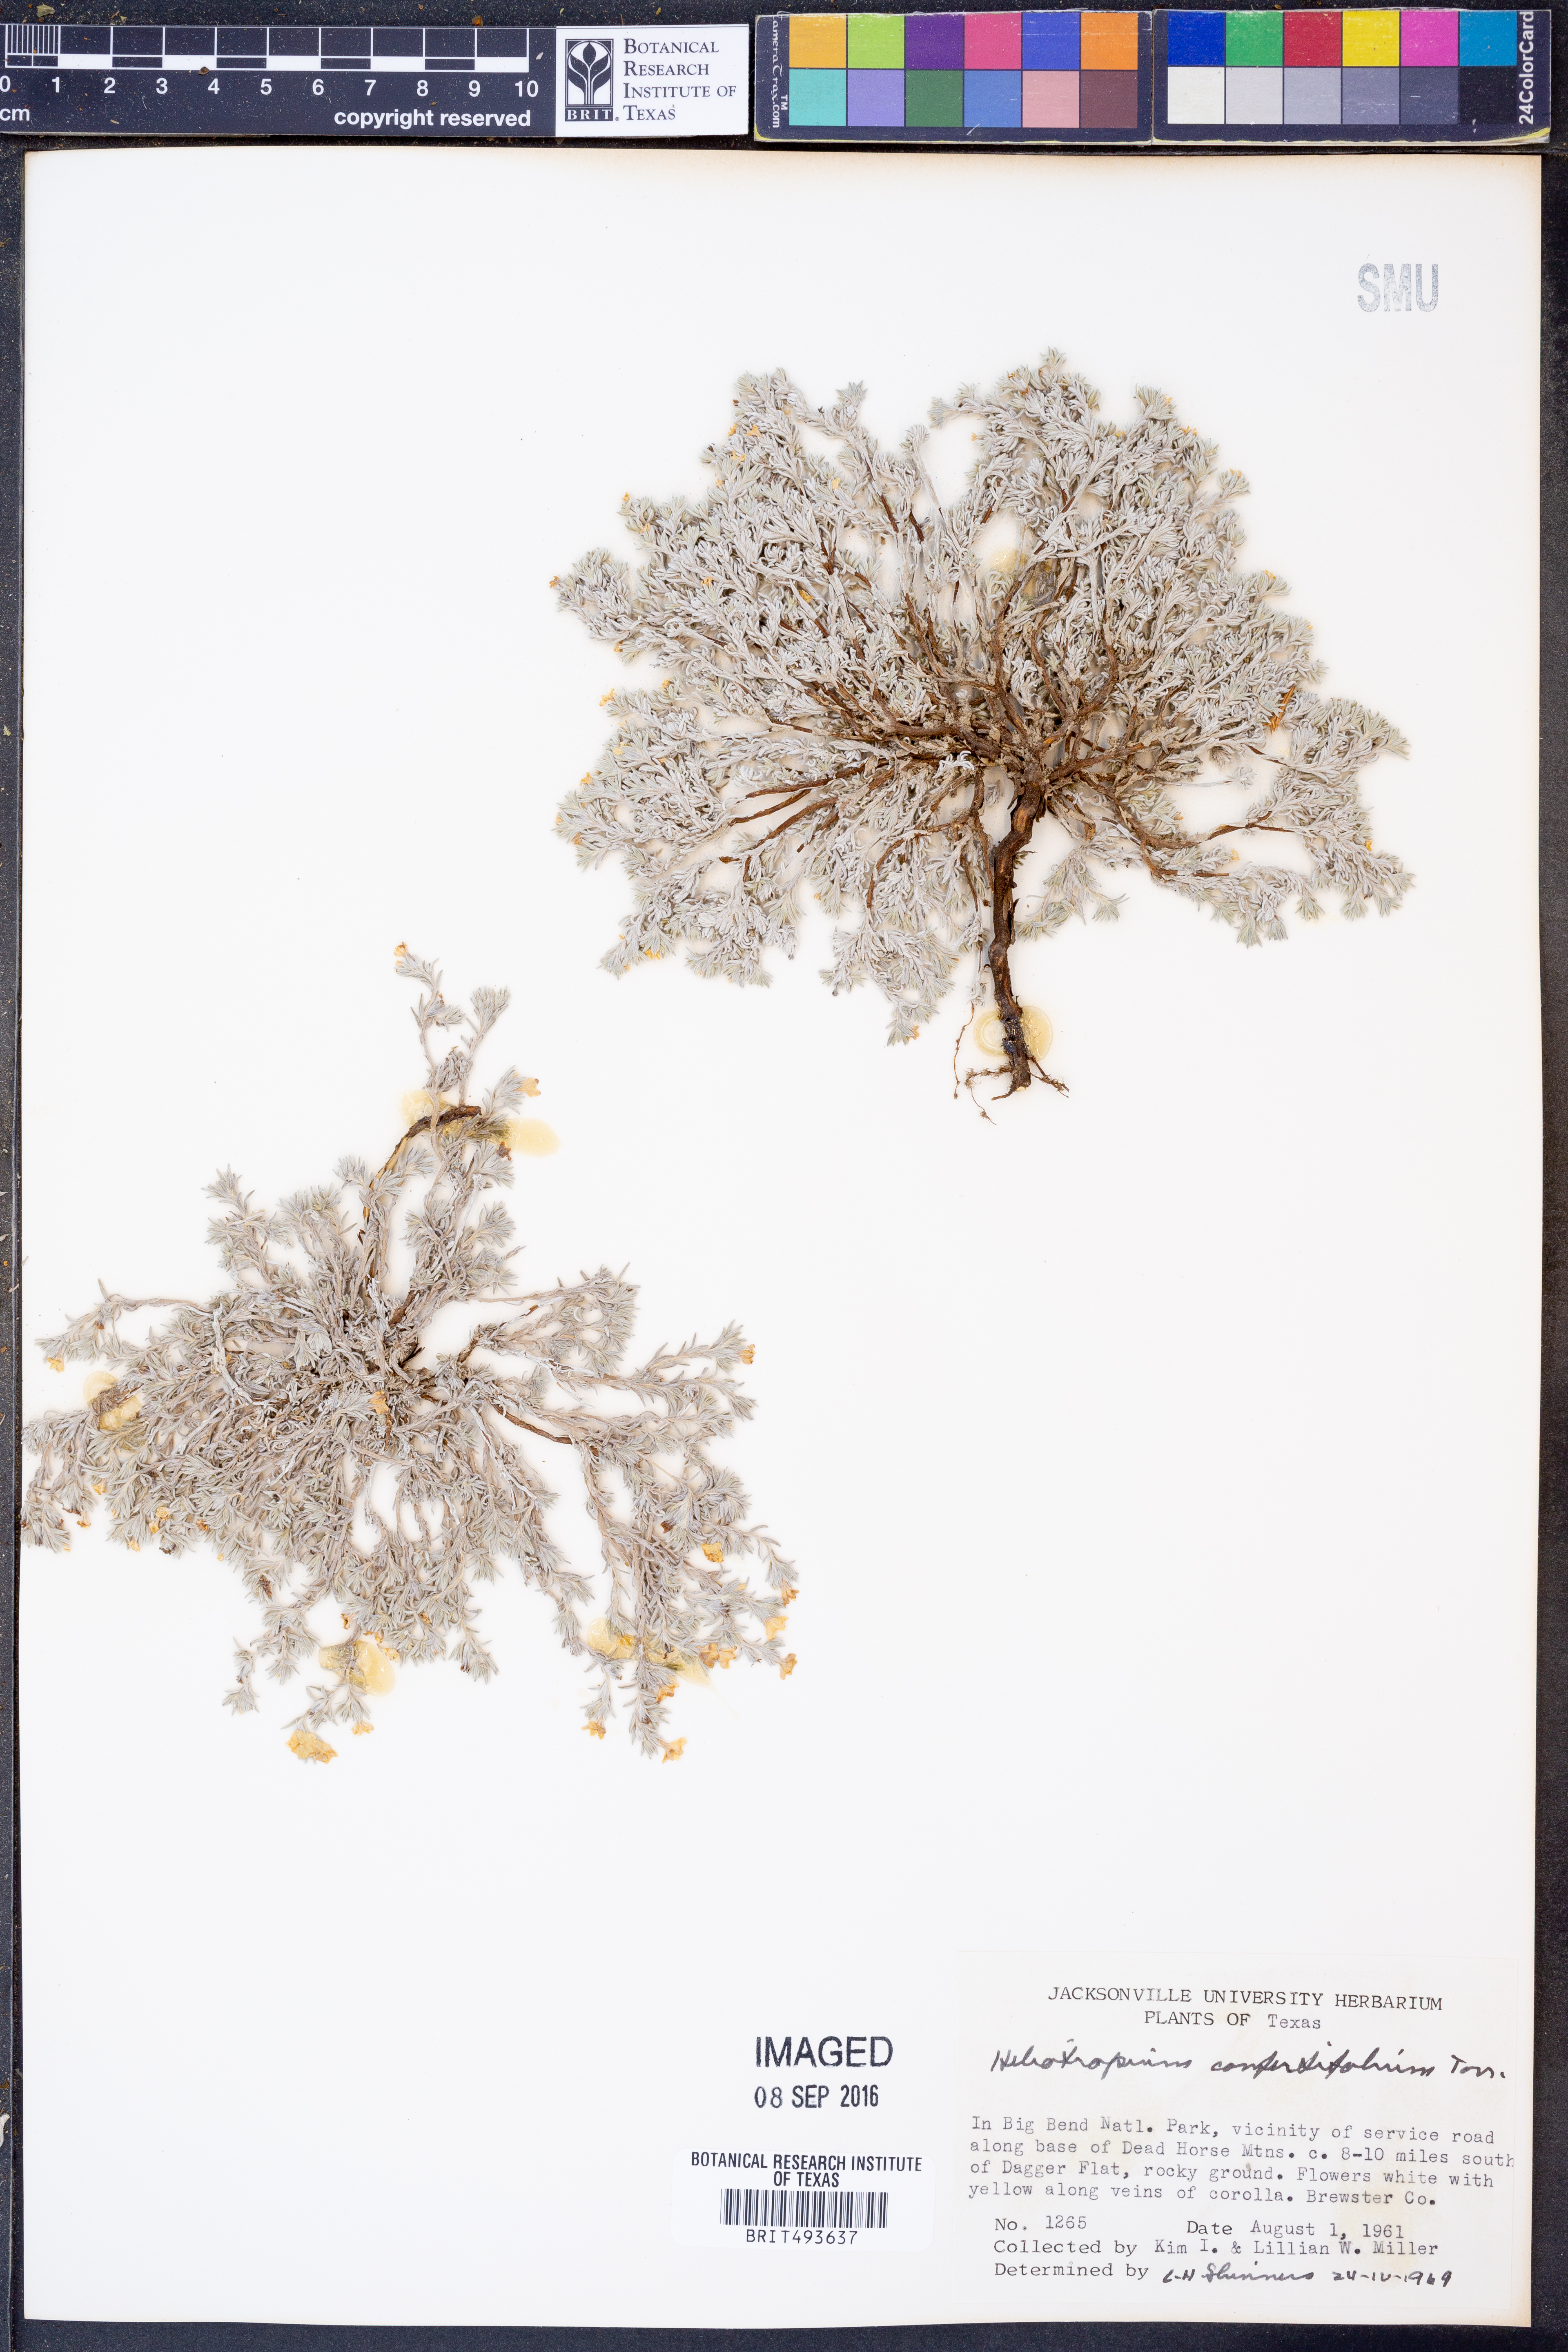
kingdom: Plantae
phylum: Tracheophyta
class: Magnoliopsida
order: Boraginales
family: Heliotropiaceae
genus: Euploca
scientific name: Euploca confertifolia
